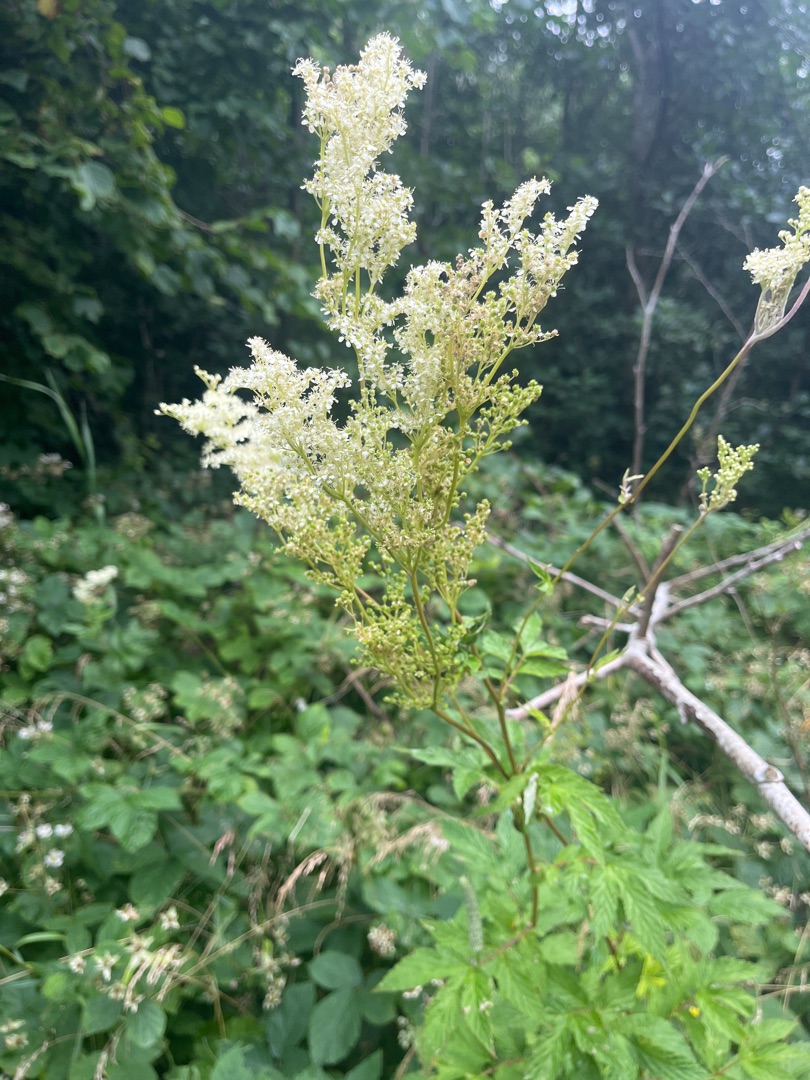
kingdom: Plantae
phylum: Tracheophyta
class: Magnoliopsida
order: Rosales
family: Rosaceae
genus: Filipendula
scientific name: Filipendula ulmaria
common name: Almindelig mjødurt
